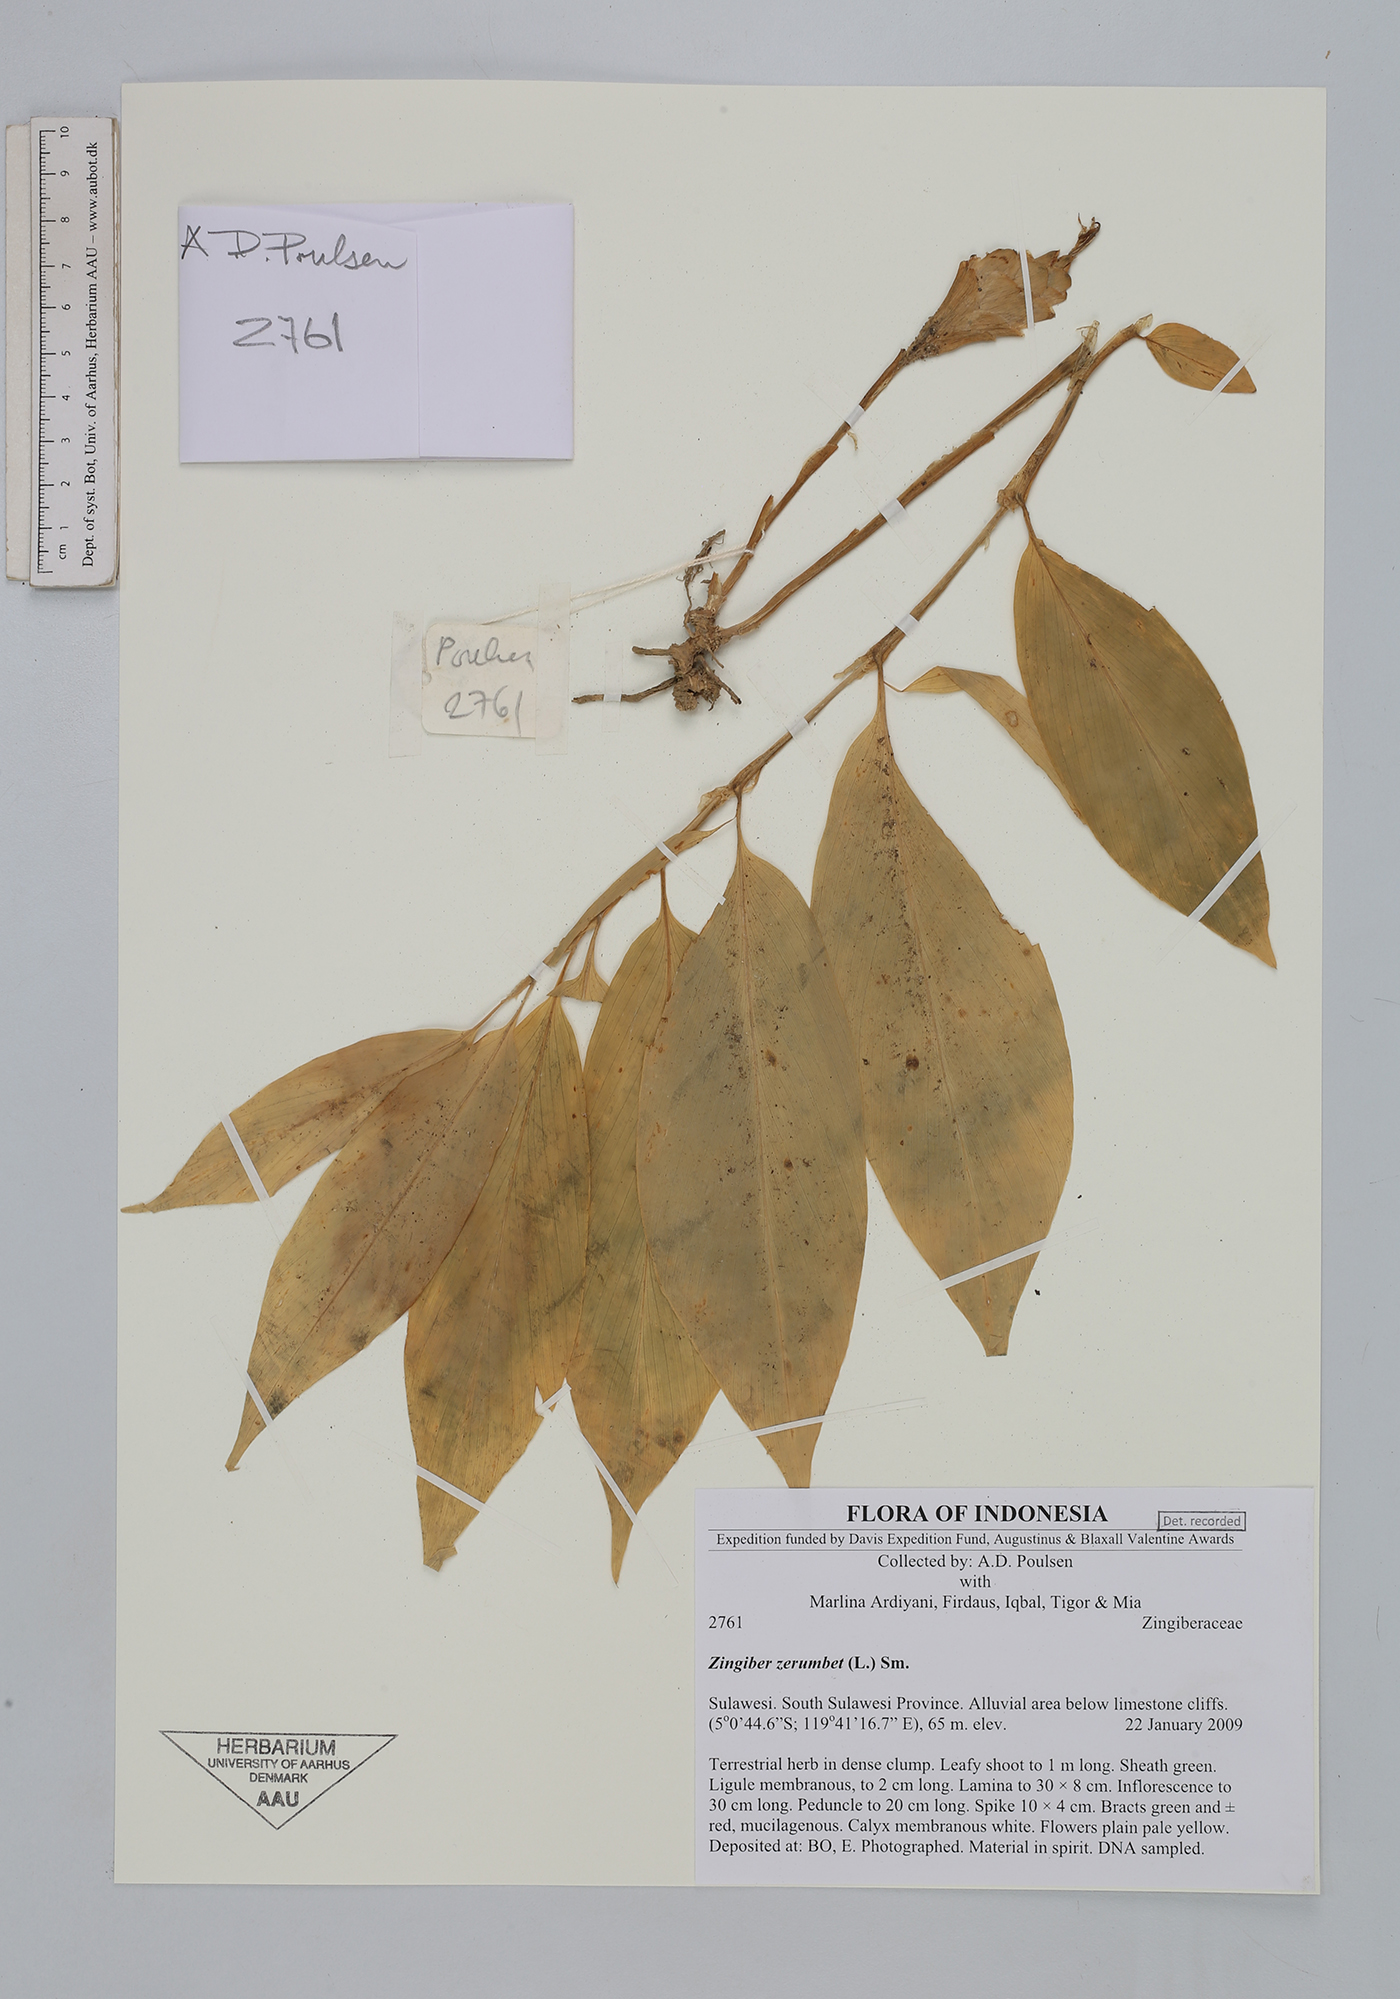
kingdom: Plantae
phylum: Tracheophyta
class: Liliopsida
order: Zingiberales
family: Zingiberaceae
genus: Zingiber
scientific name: Zingiber zerumbet
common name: Bitter ginger
